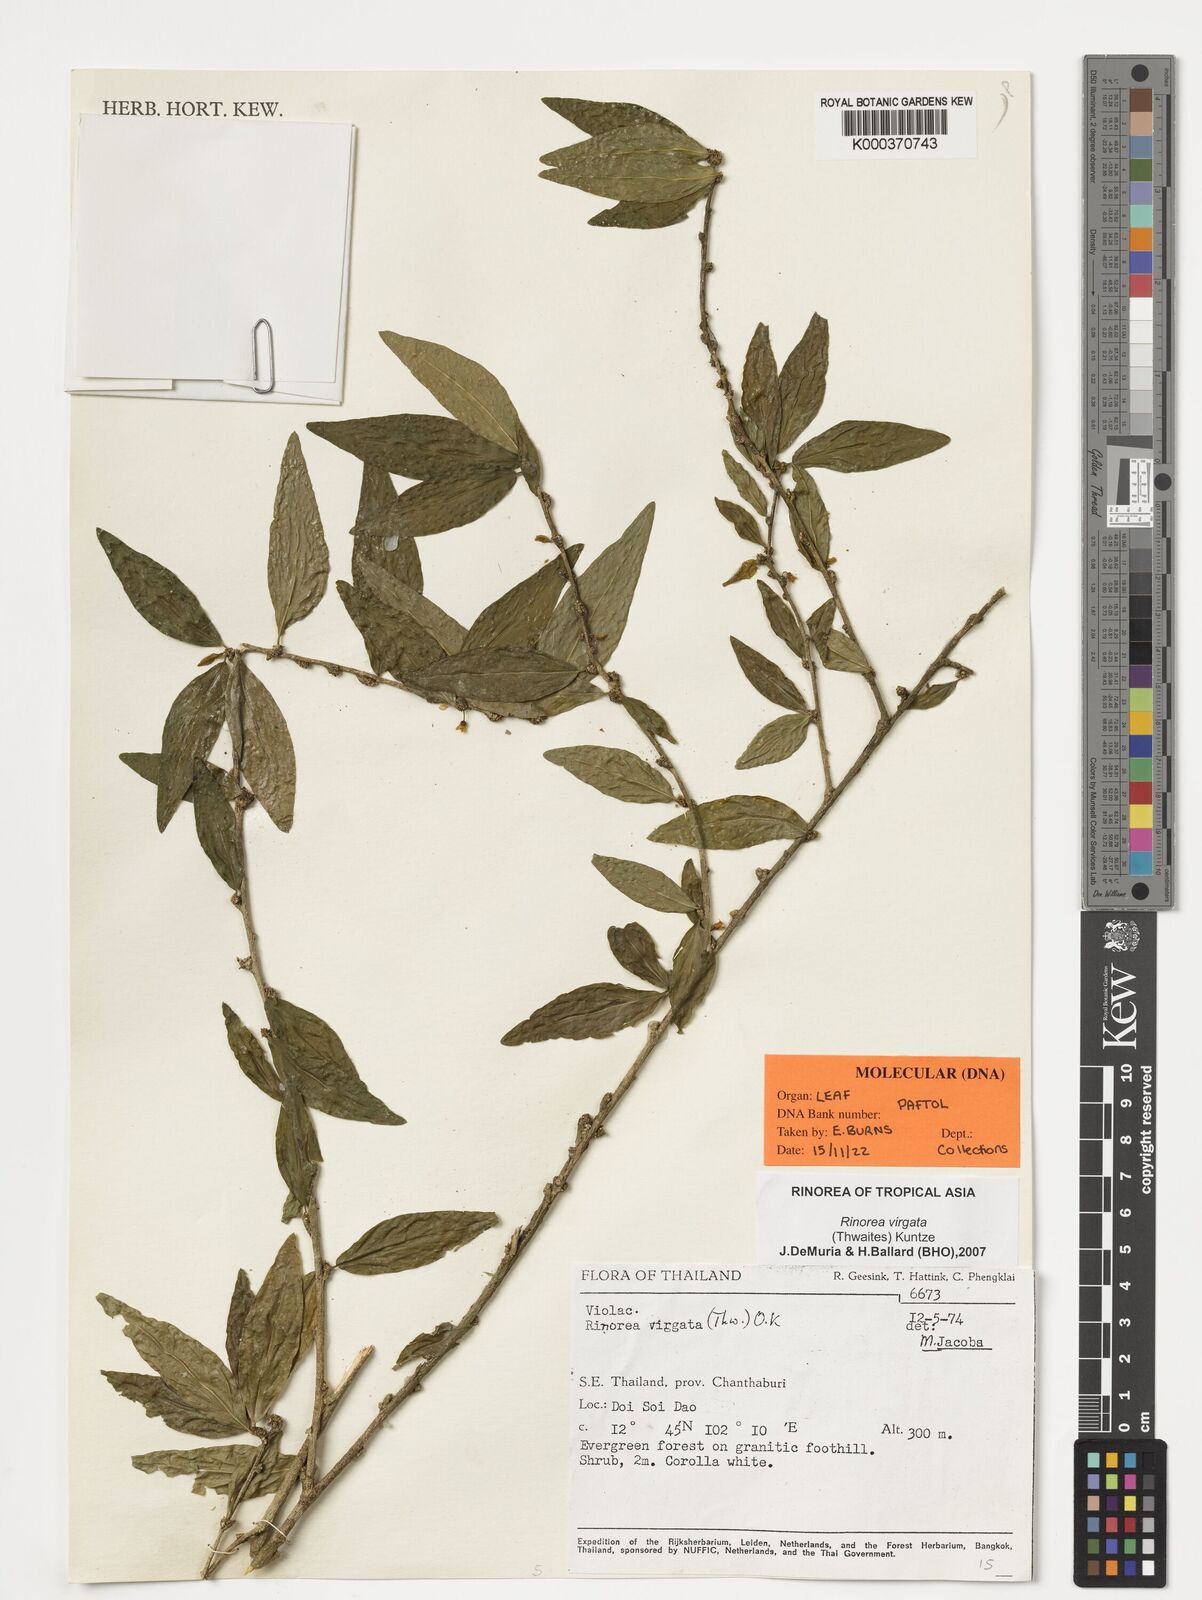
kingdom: Plantae
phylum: Tracheophyta
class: Magnoliopsida
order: Malpighiales
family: Violaceae
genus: Scyphellandra
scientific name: Scyphellandra virgata
